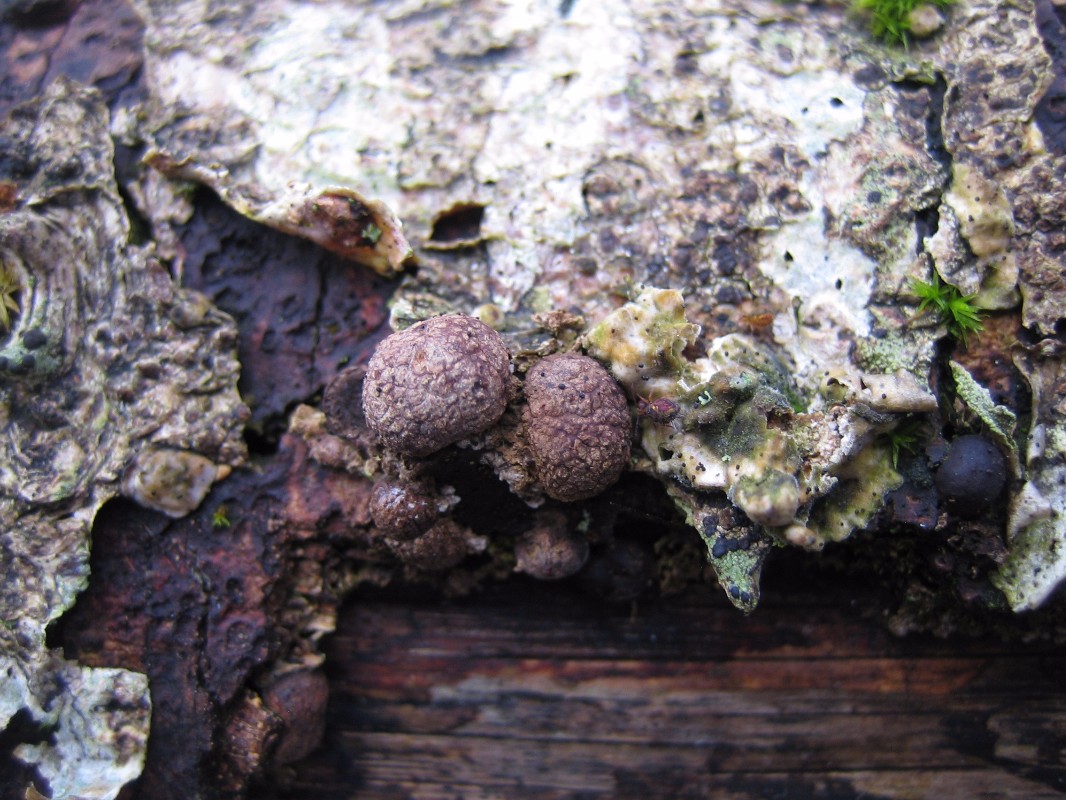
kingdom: Fungi
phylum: Ascomycota
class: Sordariomycetes
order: Xylariales
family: Hypoxylaceae
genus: Hypoxylon
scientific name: Hypoxylon howeanum
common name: halvkugleformet kulbær
